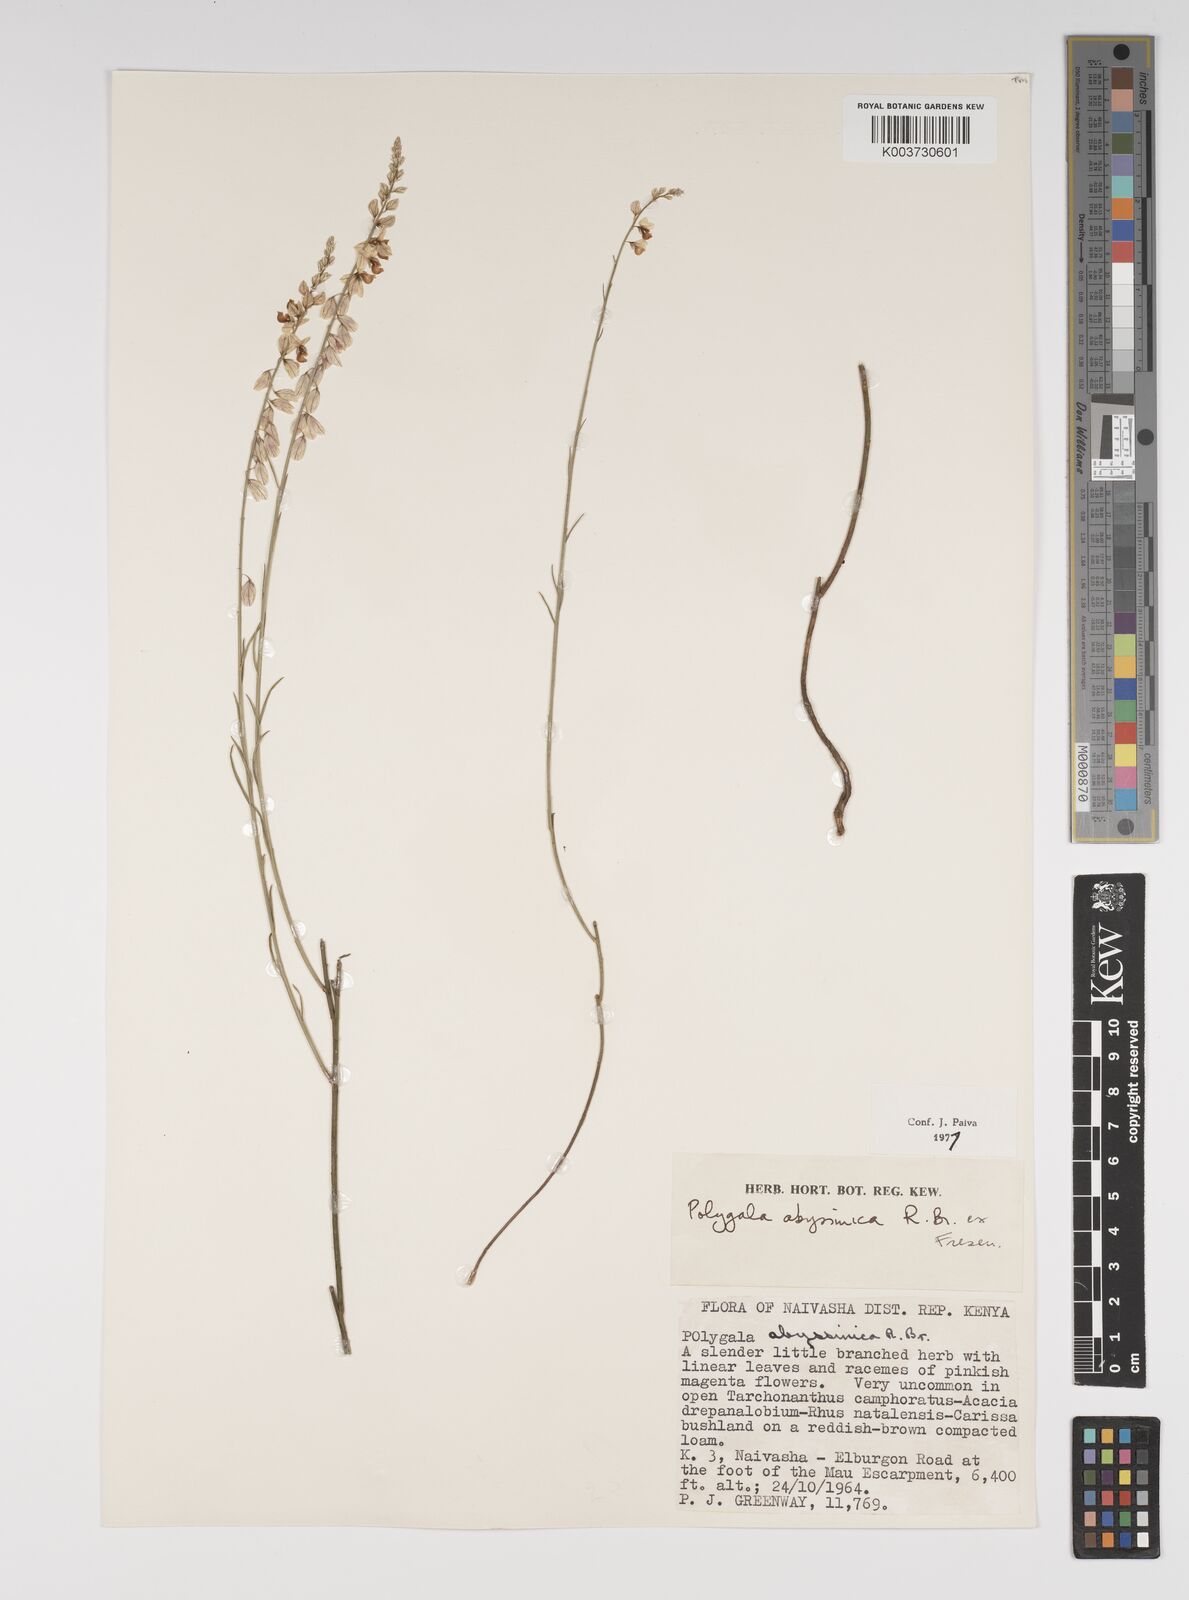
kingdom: Plantae
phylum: Tracheophyta
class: Magnoliopsida
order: Fabales
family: Polygalaceae
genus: Polygala
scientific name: Polygala abyssinica
